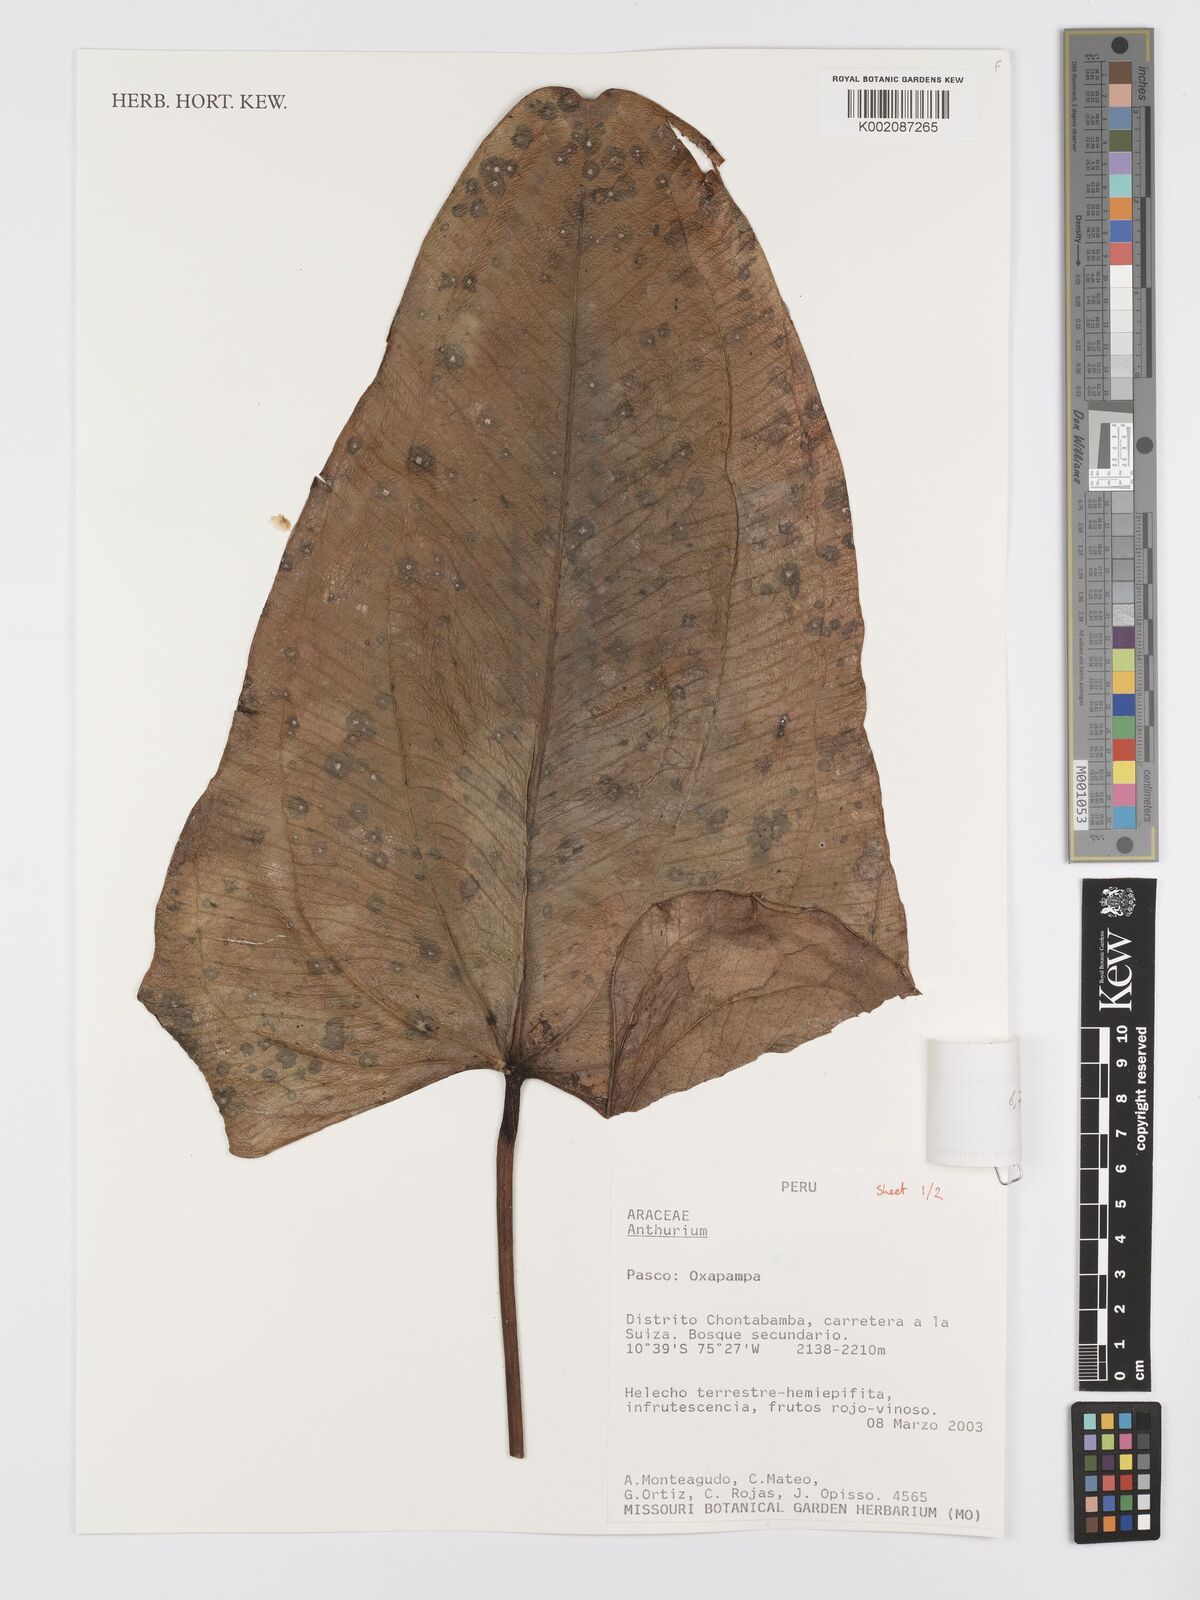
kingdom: Plantae
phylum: Tracheophyta
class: Liliopsida
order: Alismatales
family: Araceae
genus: Anthurium
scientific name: Anthurium weberbaueri
